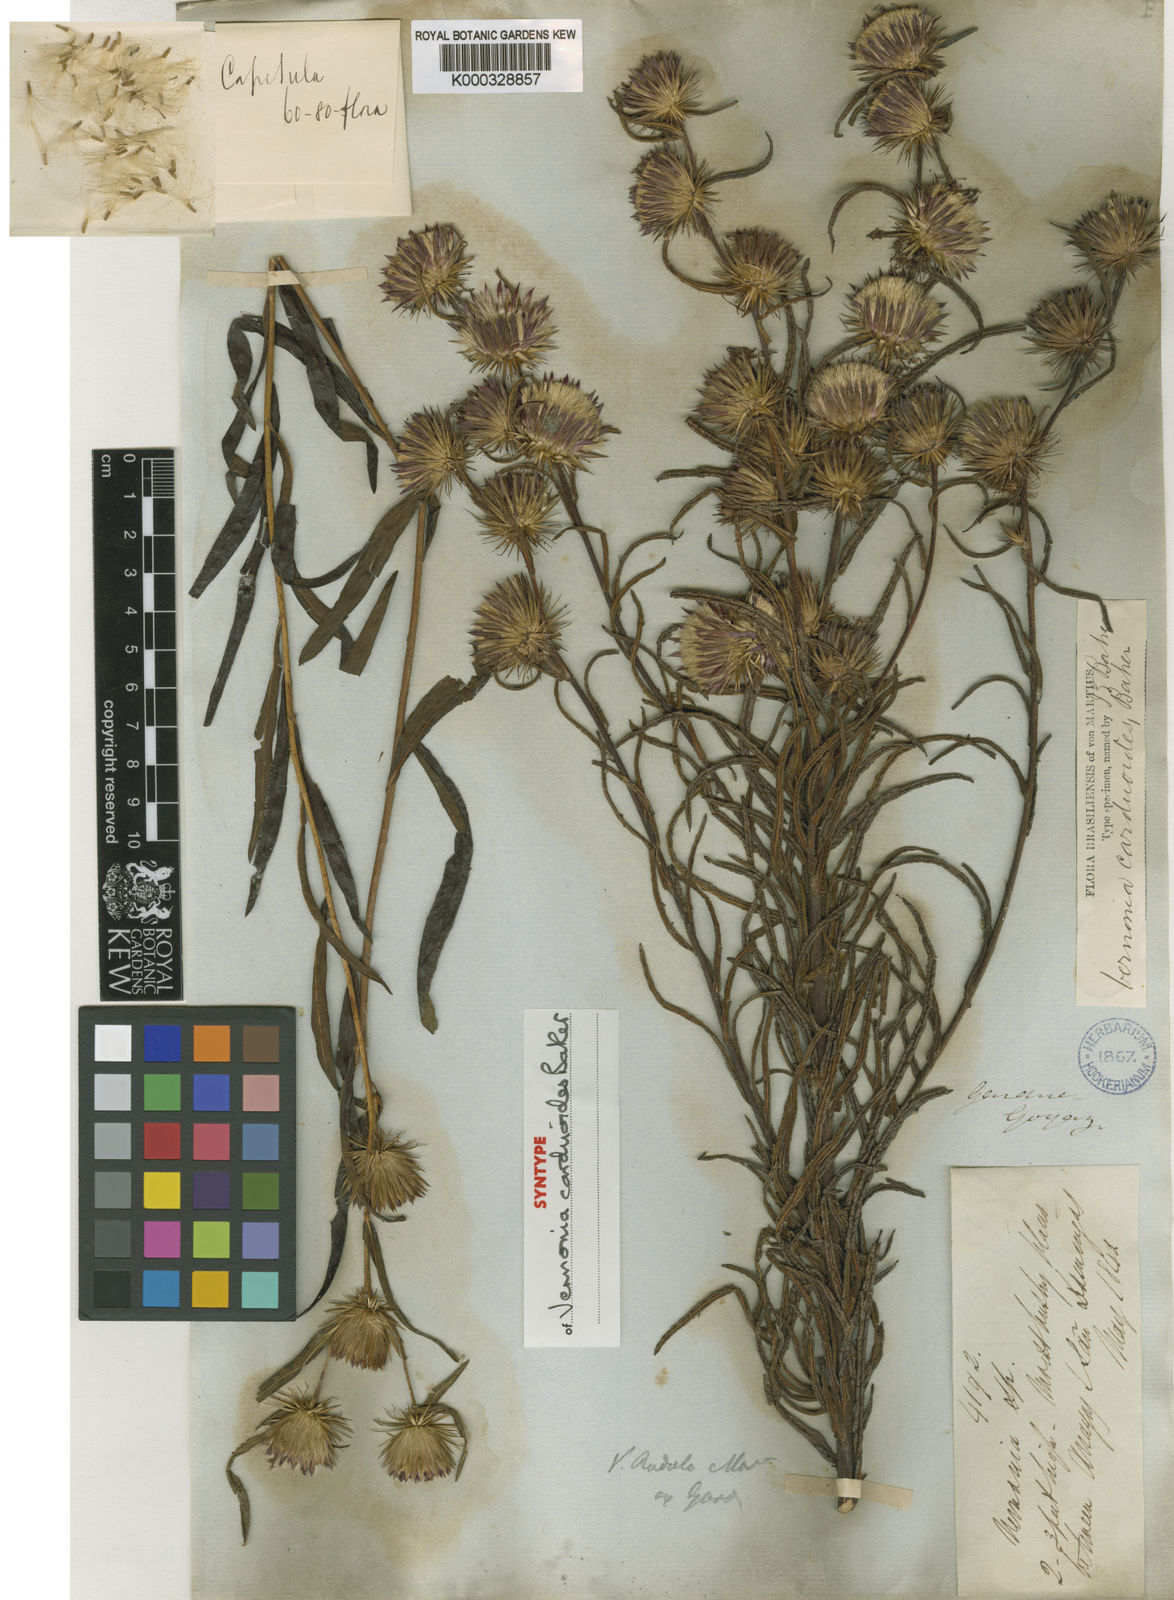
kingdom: Plantae
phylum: Tracheophyta
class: Magnoliopsida
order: Asterales
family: Asteraceae
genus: Lessingianthus
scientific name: Lessingianthus carduoides
